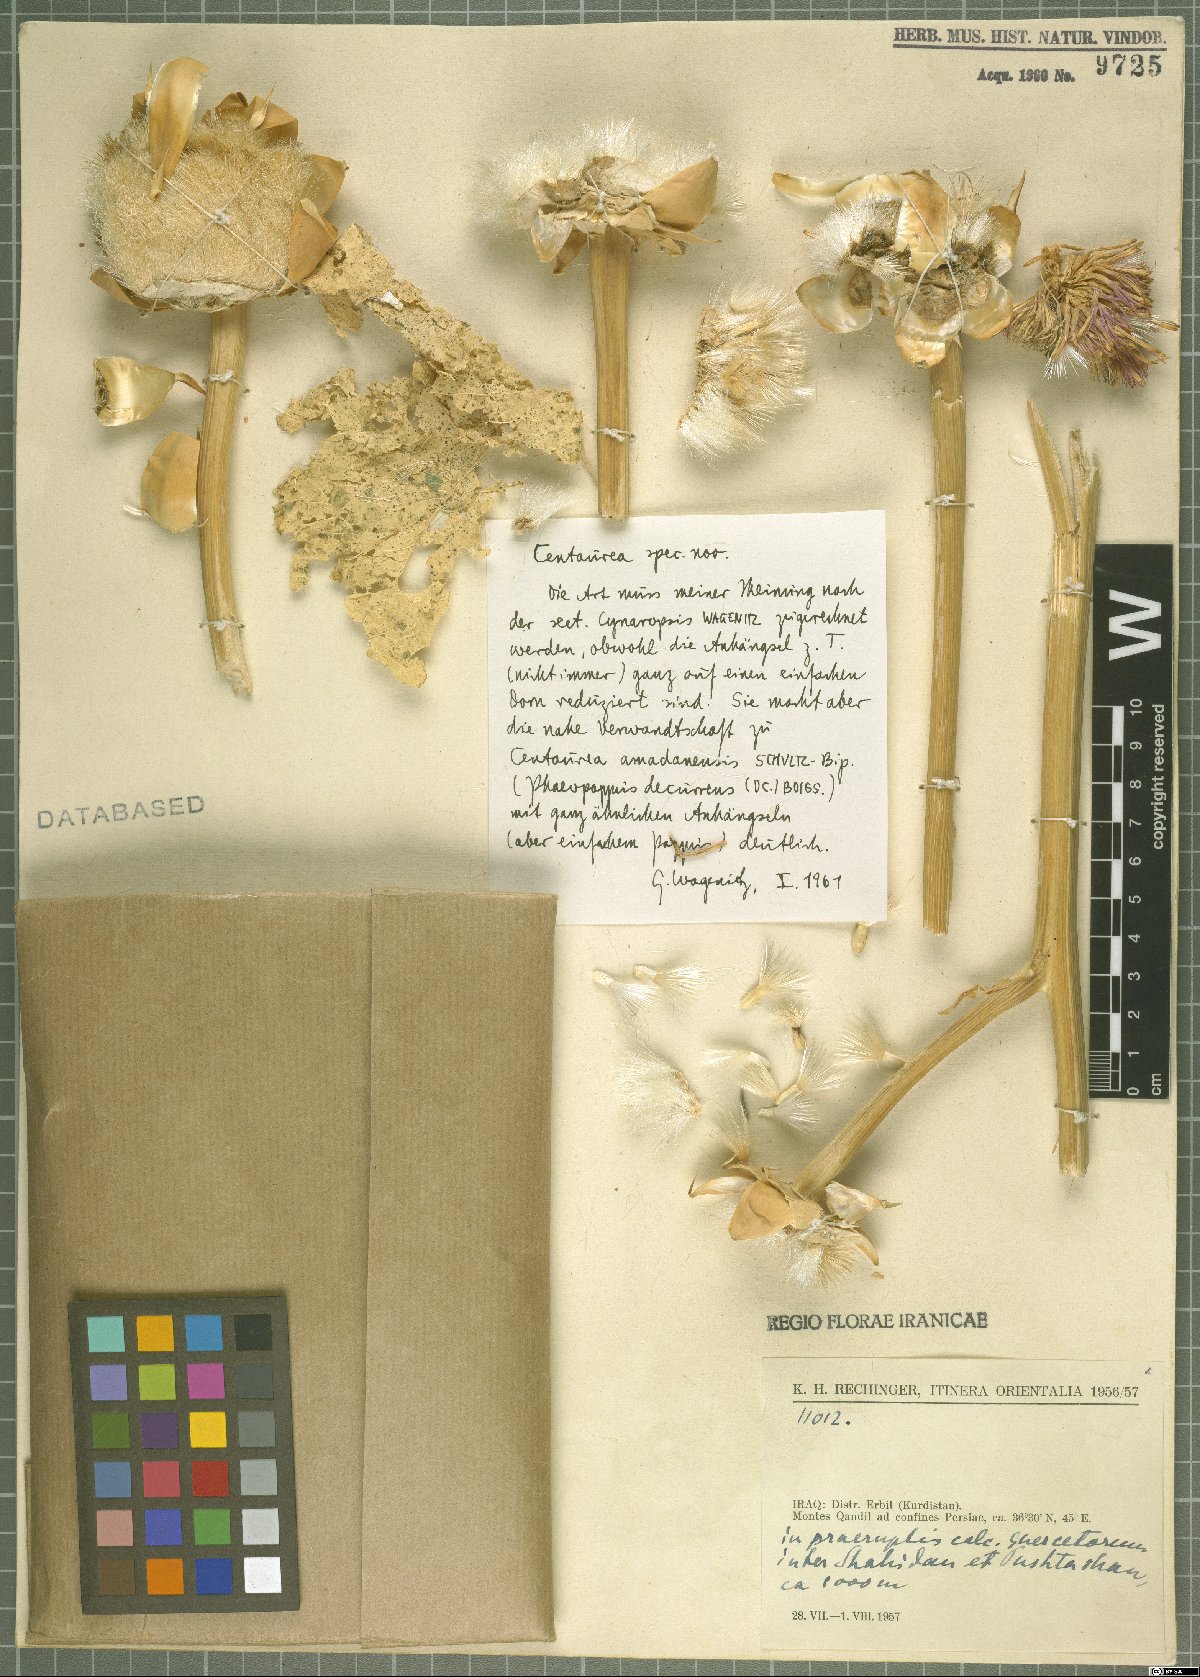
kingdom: Plantae
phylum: Tracheophyta
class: Magnoliopsida
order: Asterales
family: Asteraceae
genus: Centaurea
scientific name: Centaurea
